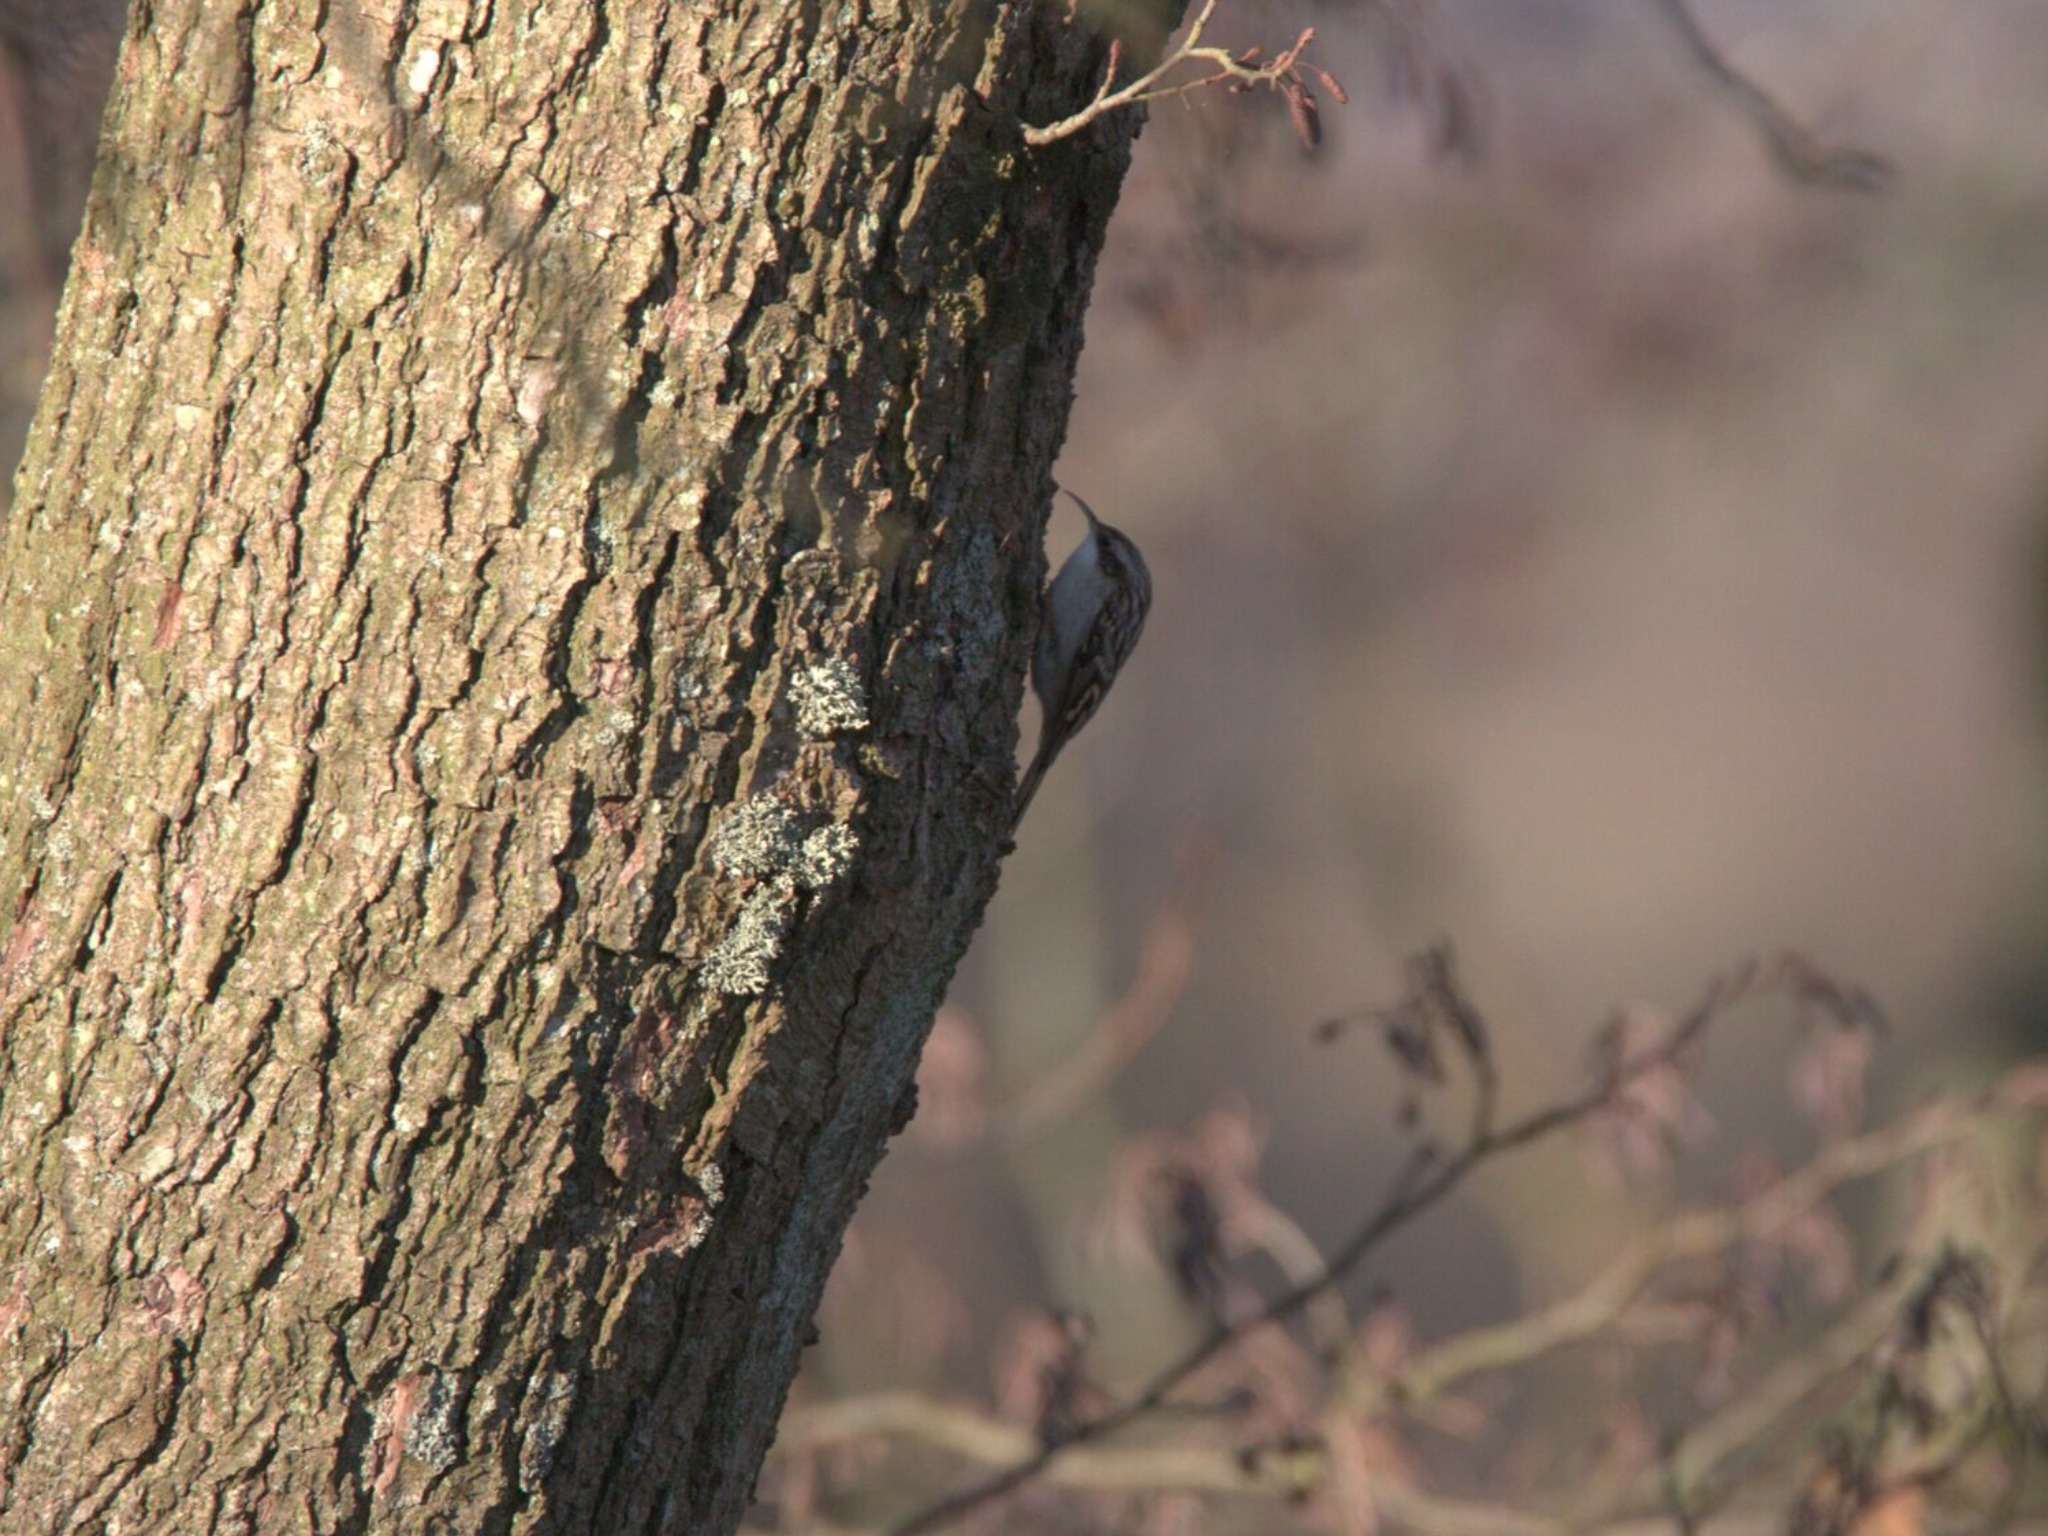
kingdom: Animalia
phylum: Chordata
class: Aves
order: Passeriformes
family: Certhiidae
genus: Certhia
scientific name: Certhia familiaris
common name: Træløber
